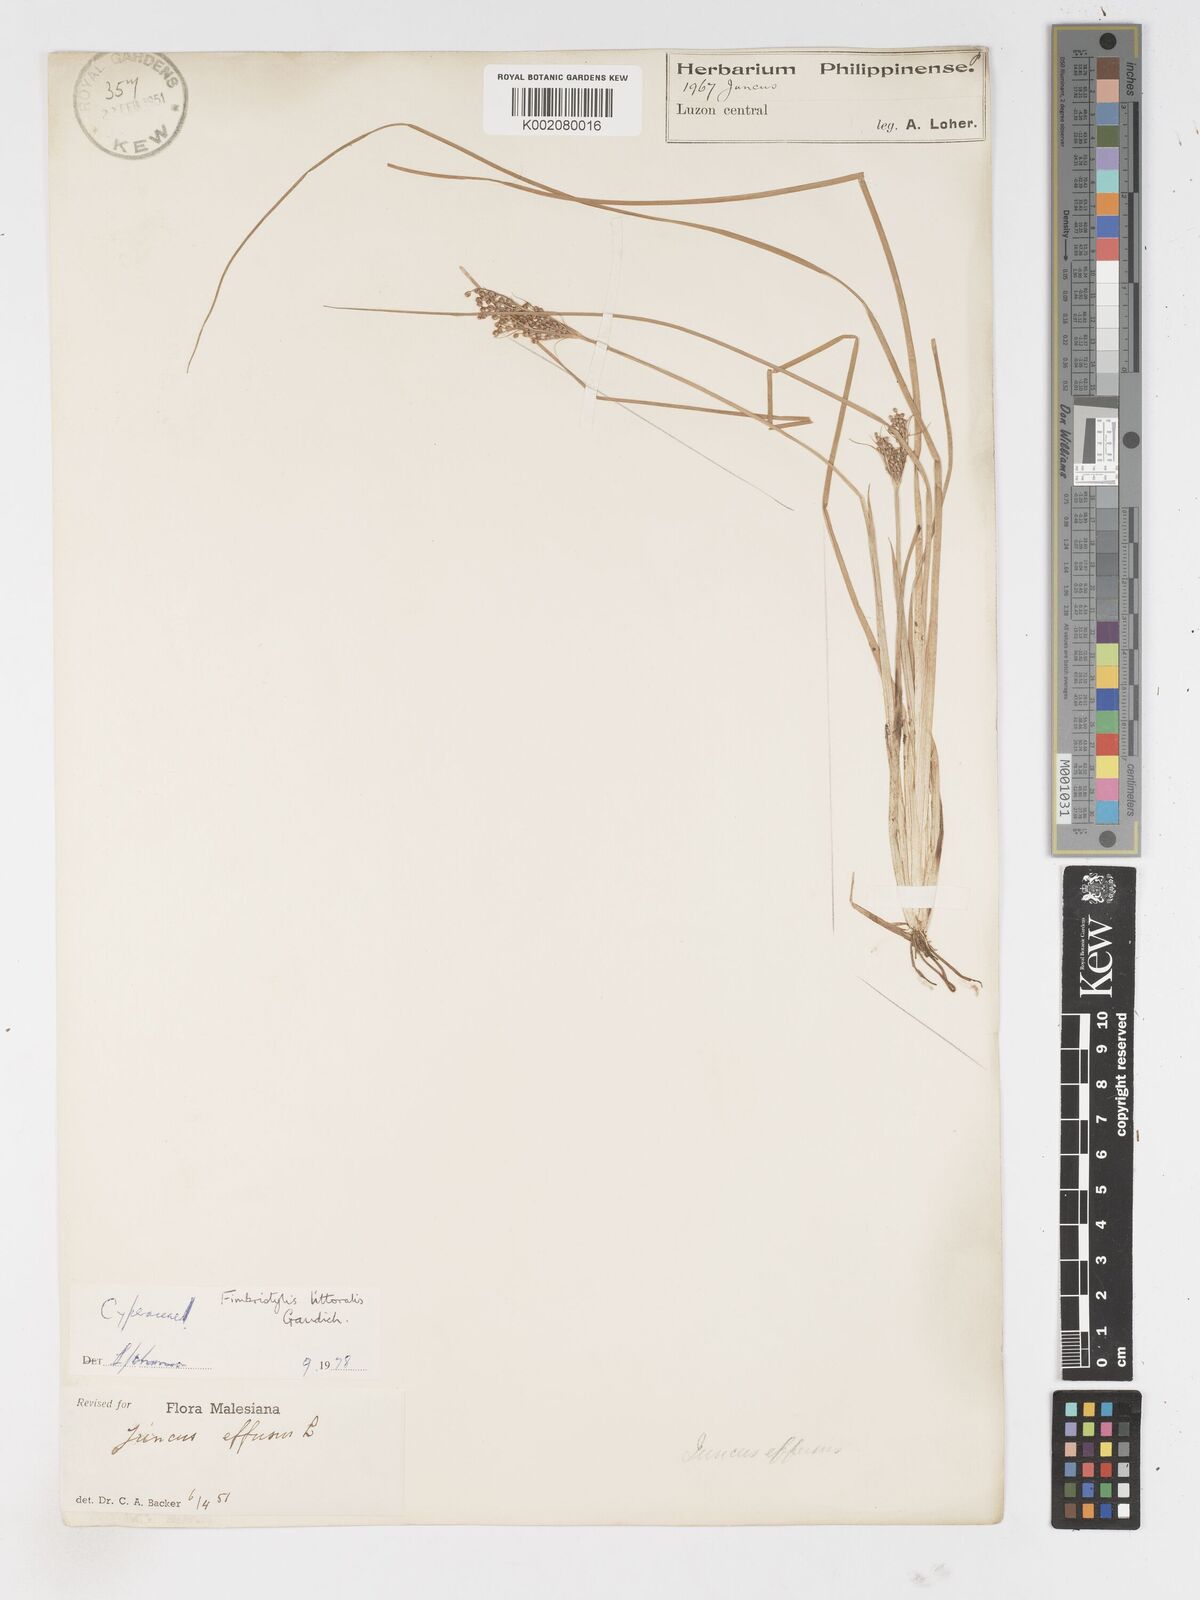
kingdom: Plantae
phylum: Tracheophyta
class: Liliopsida
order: Poales
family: Cyperaceae
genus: Fimbristylis
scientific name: Fimbristylis littoralis
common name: Fimbry
